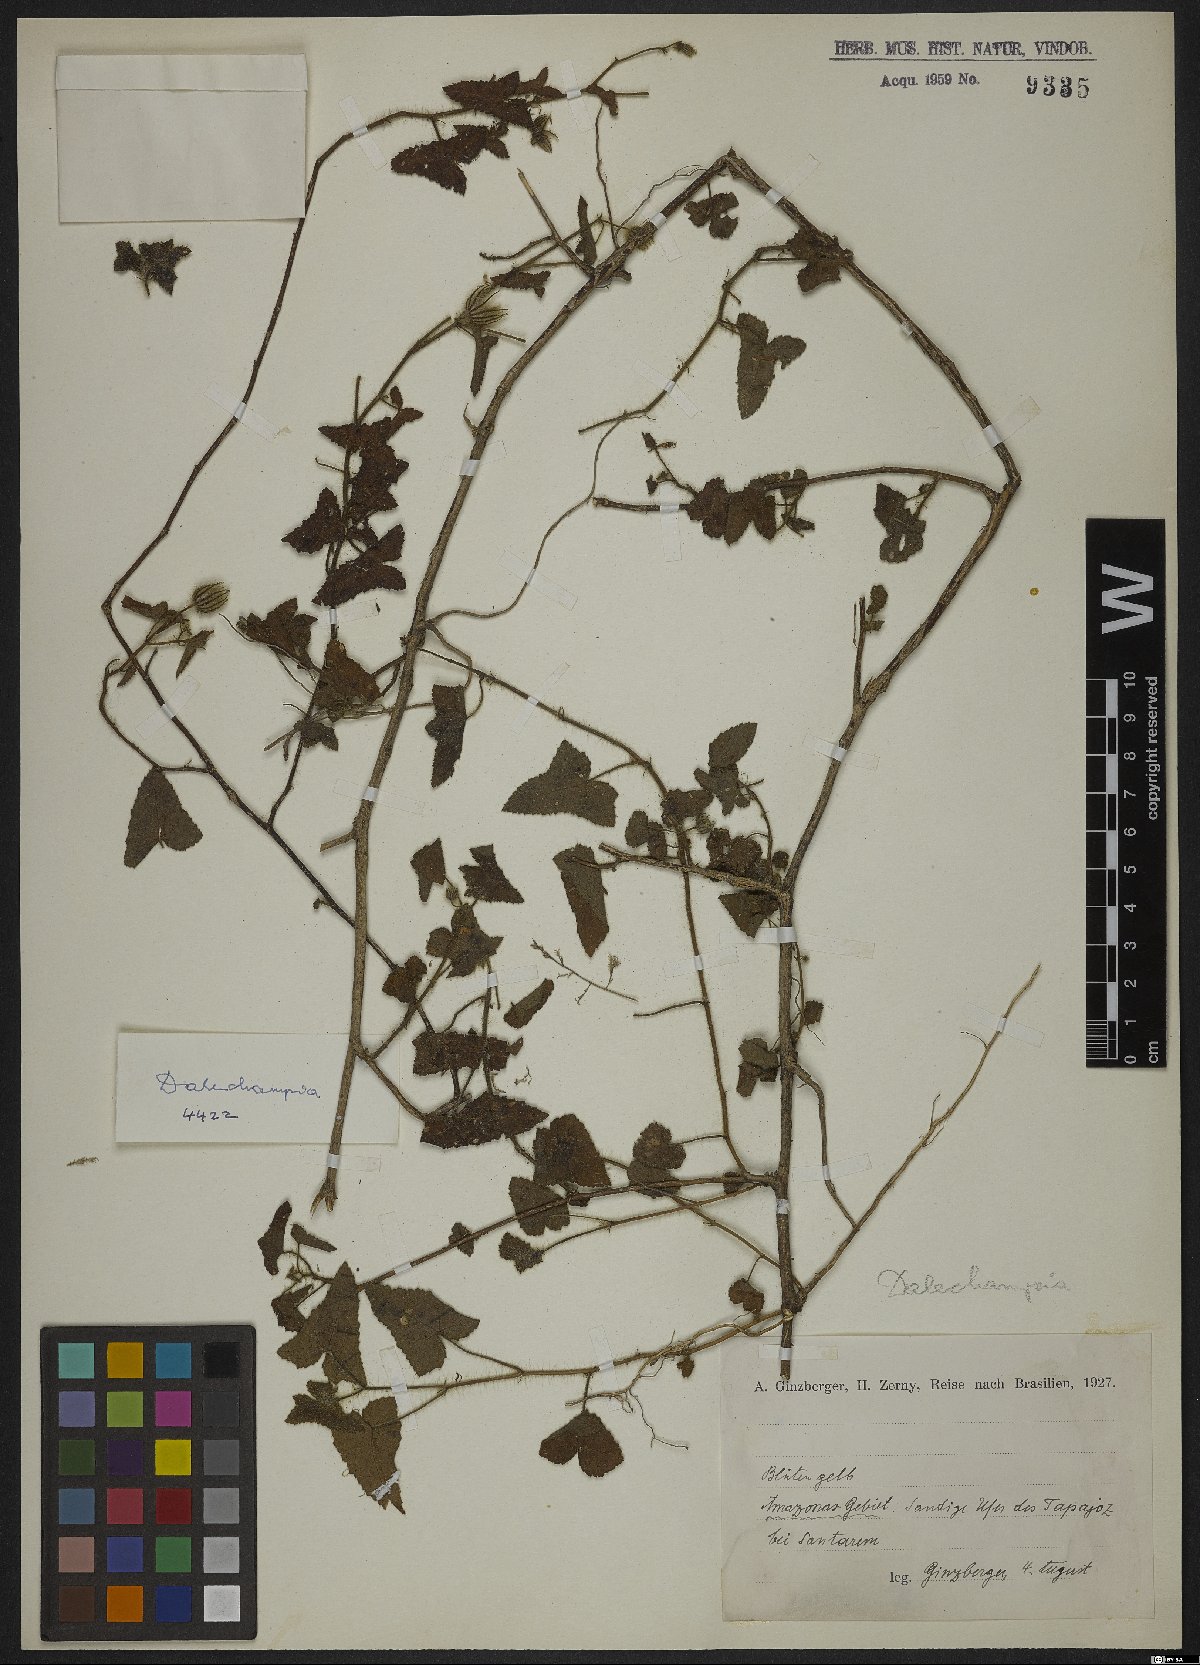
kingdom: Plantae
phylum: Tracheophyta
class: Magnoliopsida
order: Malpighiales
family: Euphorbiaceae
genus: Dalechampia
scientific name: Dalechampia
